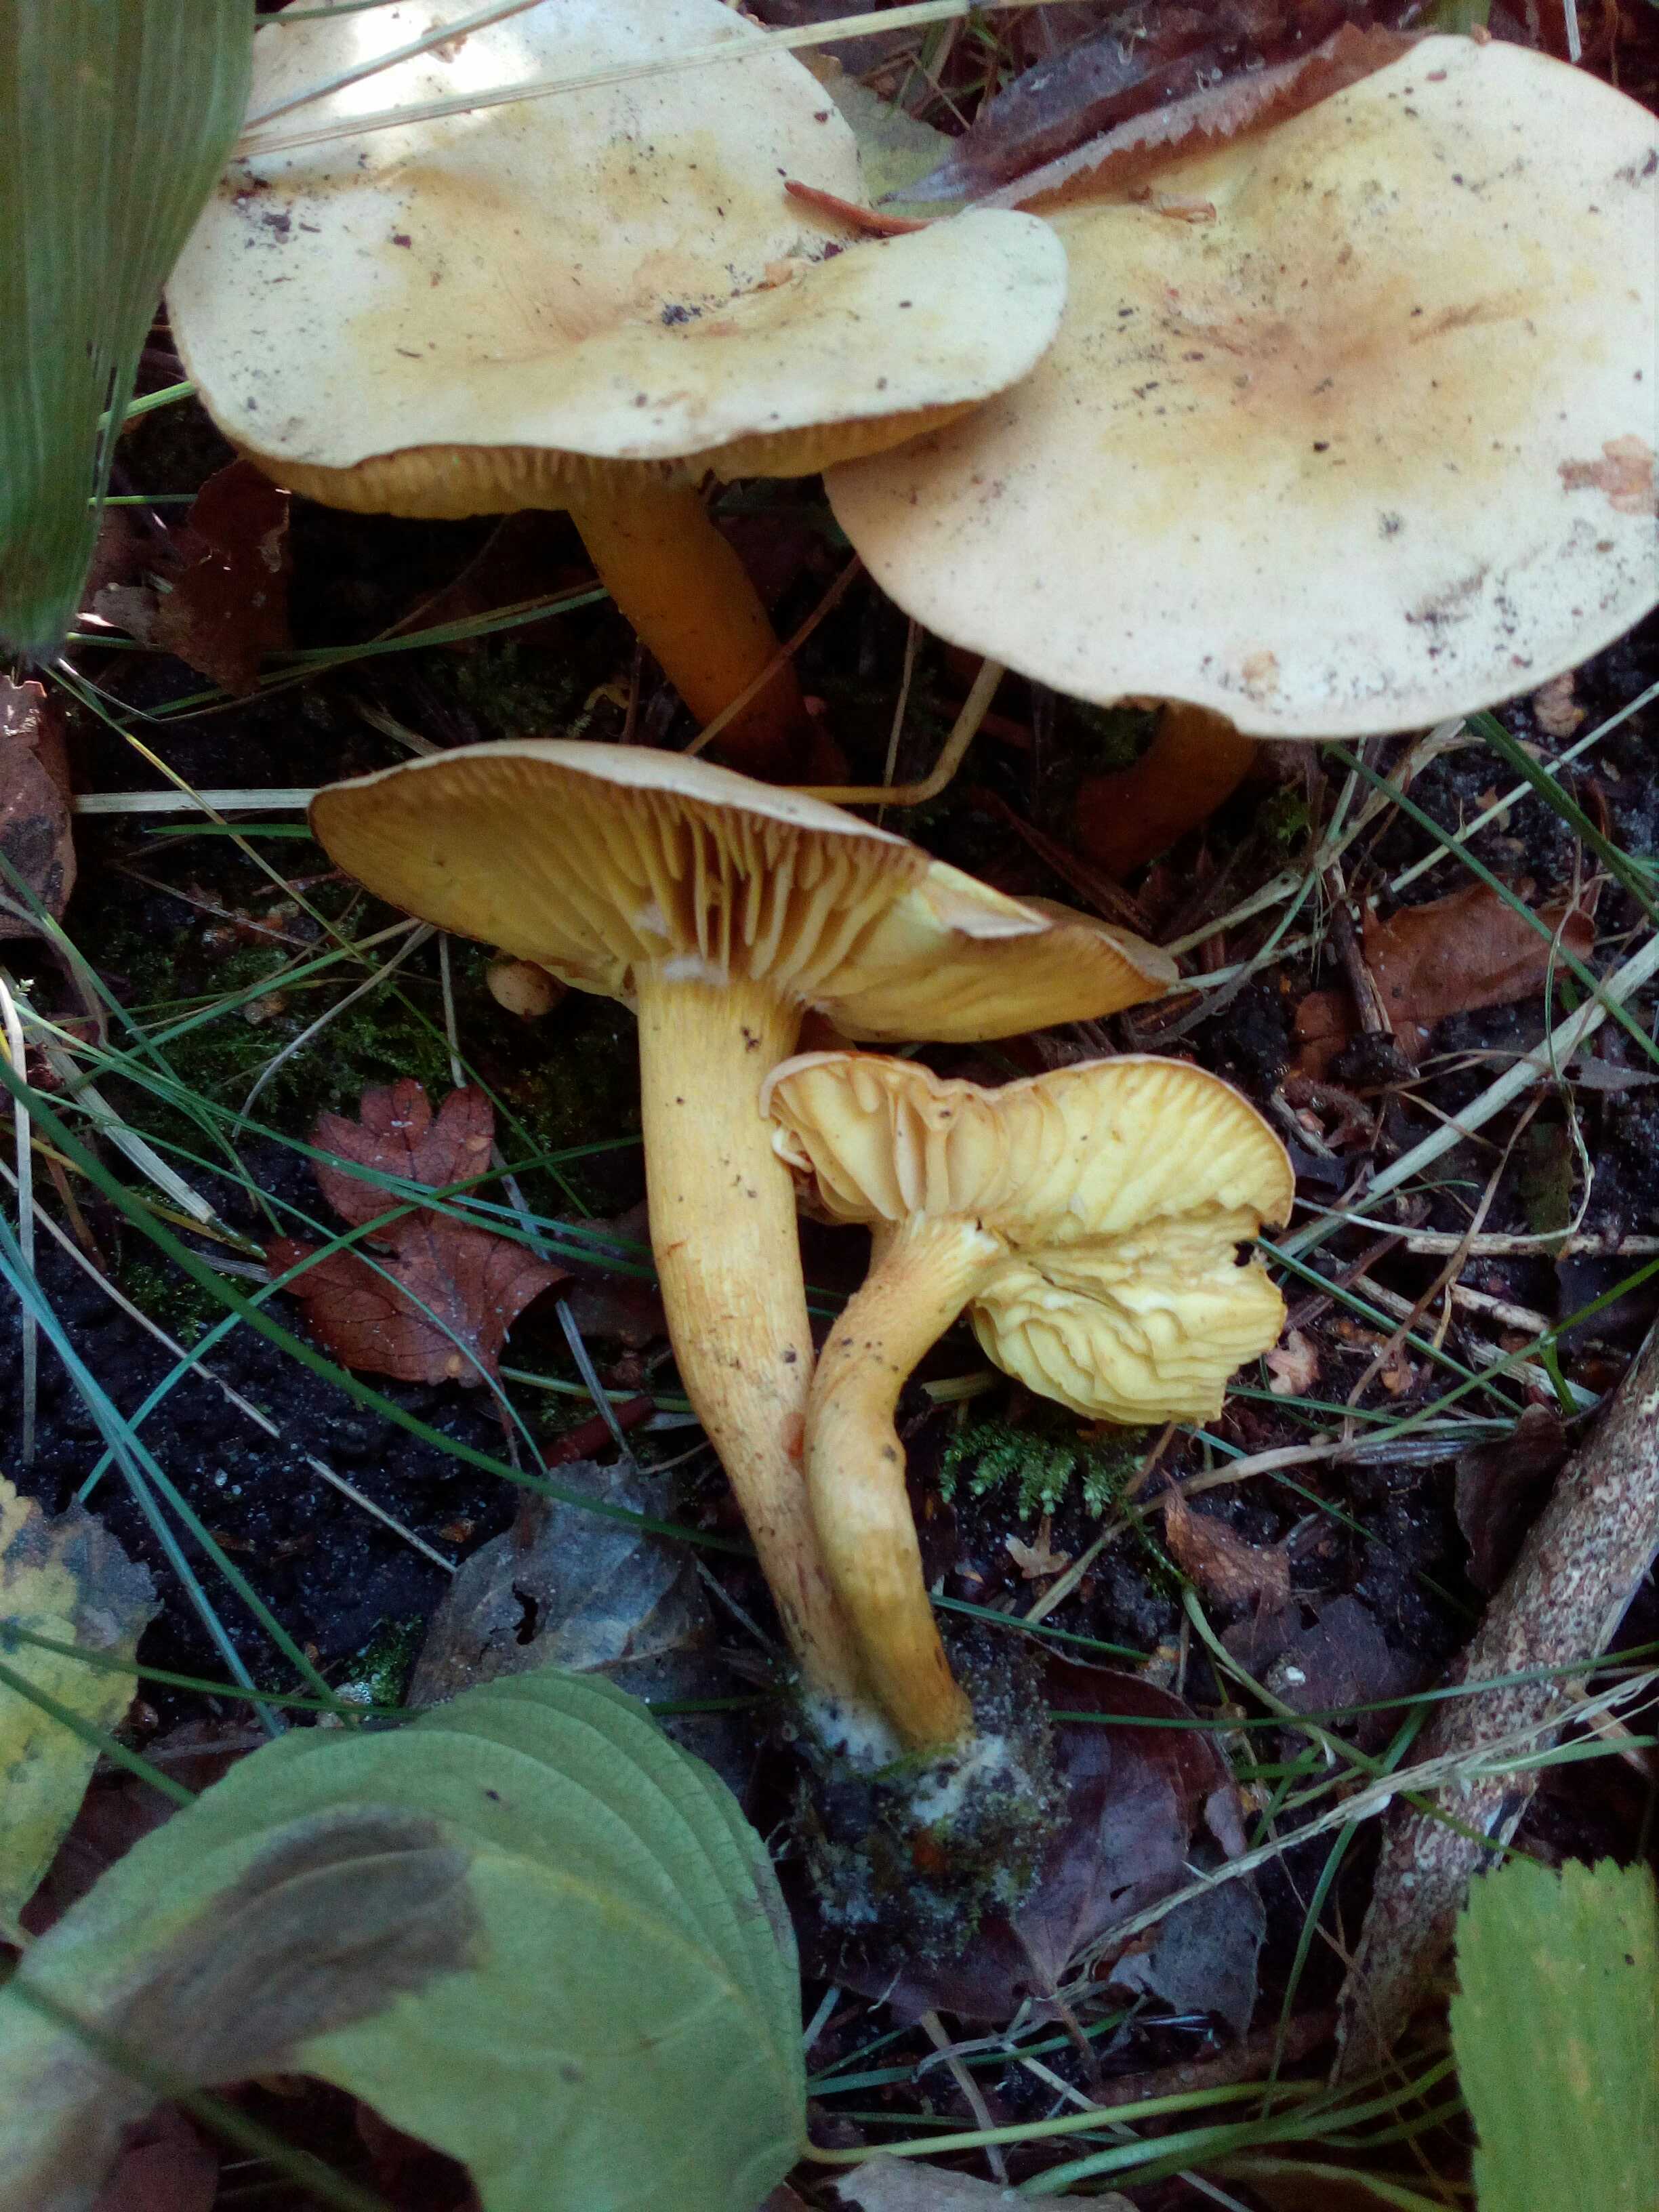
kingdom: Fungi
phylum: Basidiomycota
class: Agaricomycetes
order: Agaricales
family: Tricholomataceae
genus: Tricholoma
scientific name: Tricholoma sulphureum
